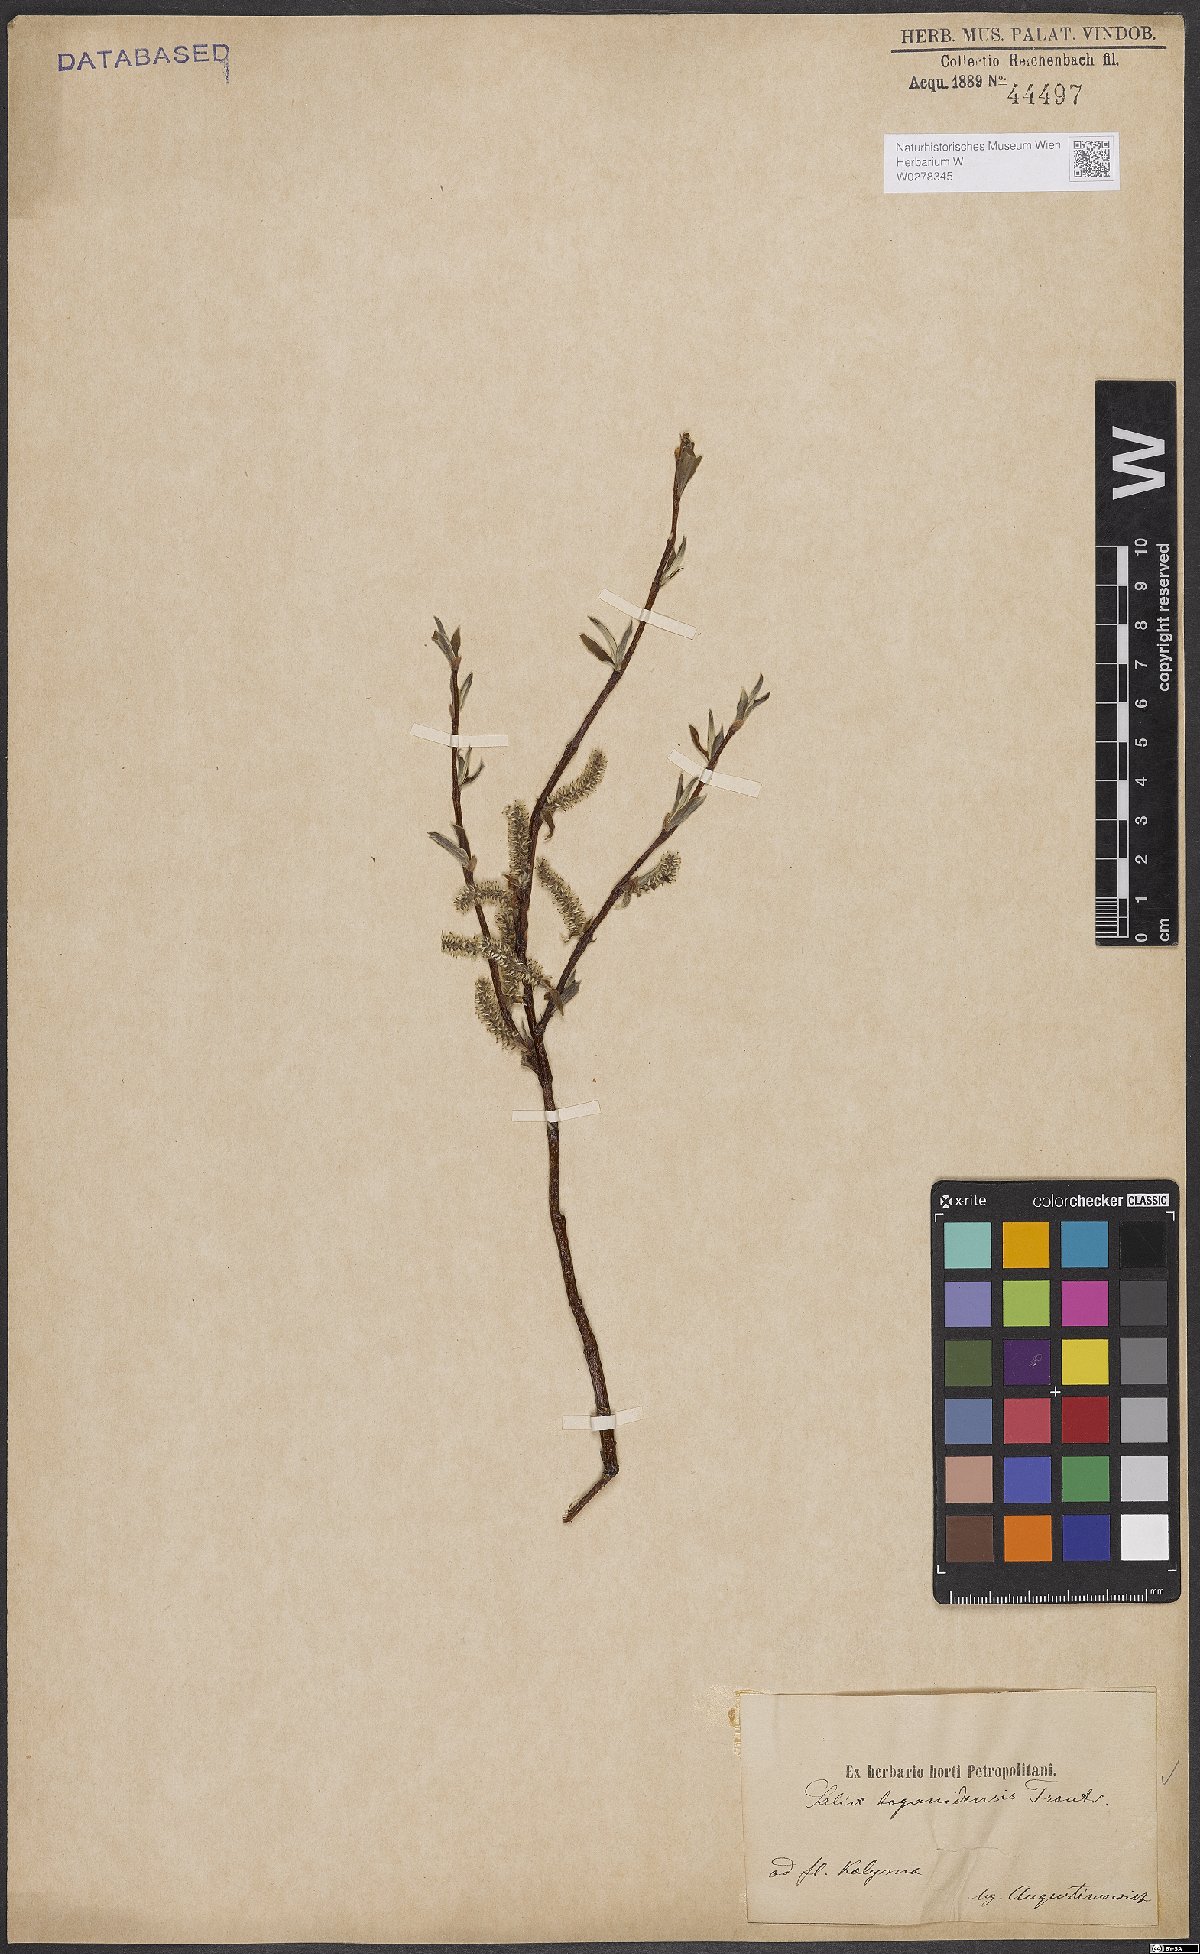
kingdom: Plantae
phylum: Tracheophyta
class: Magnoliopsida
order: Malpighiales
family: Salicaceae
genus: Salix
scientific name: Salix boganidensis
